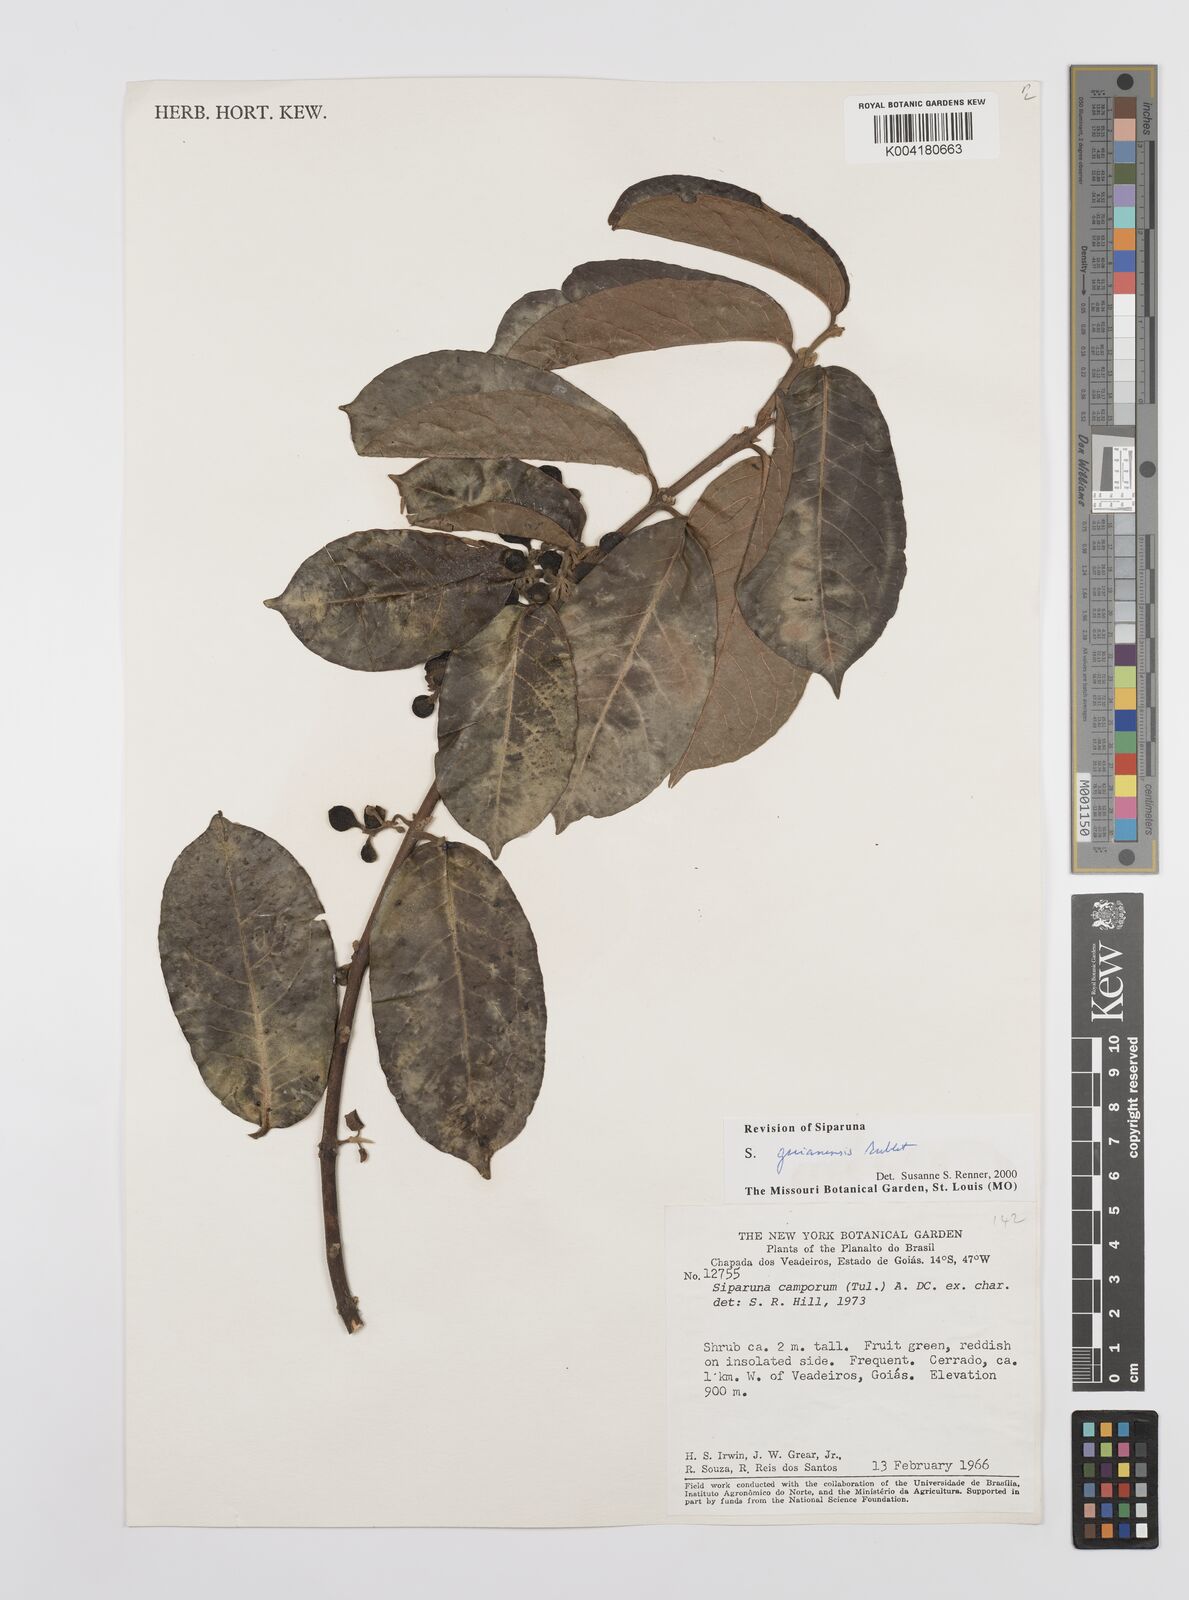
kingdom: Plantae
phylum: Tracheophyta
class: Magnoliopsida
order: Laurales
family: Siparunaceae
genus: Siparuna
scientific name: Siparuna guianensis
